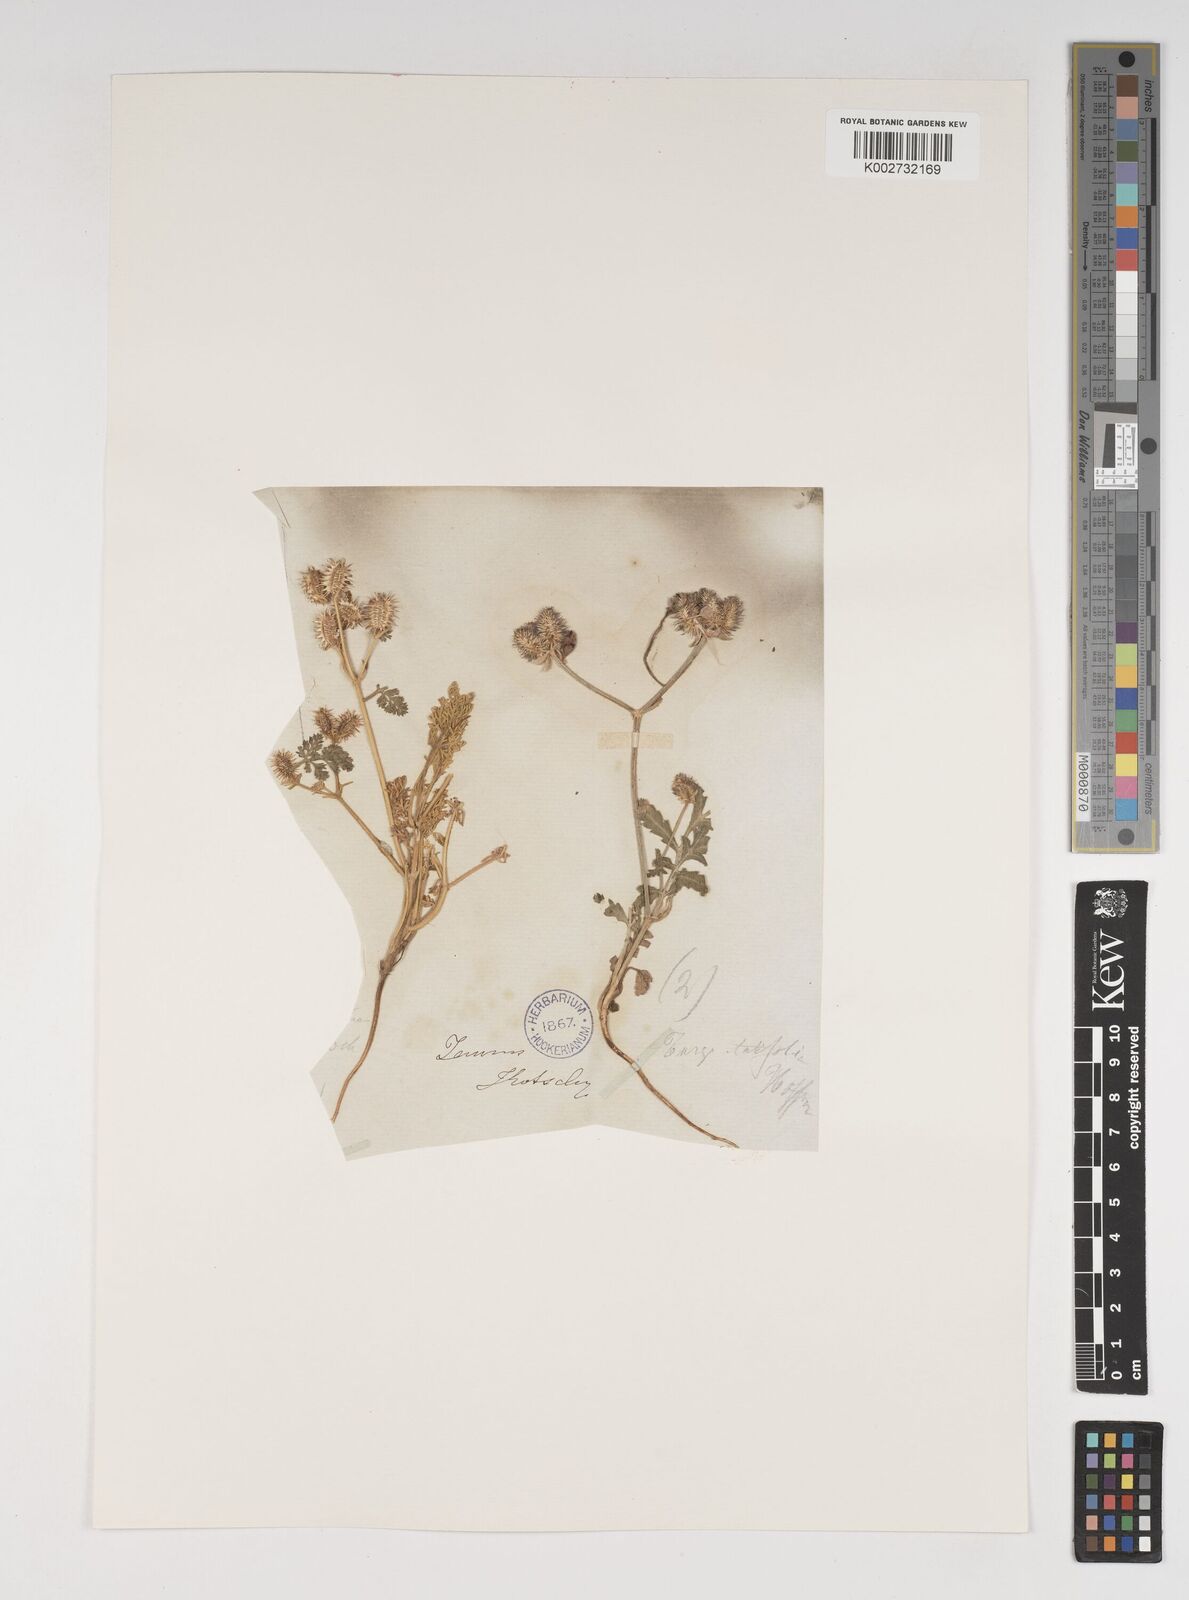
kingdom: Plantae
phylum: Tracheophyta
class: Magnoliopsida
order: Apiales
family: Apiaceae
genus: Daucus
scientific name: Daucus pumilus
